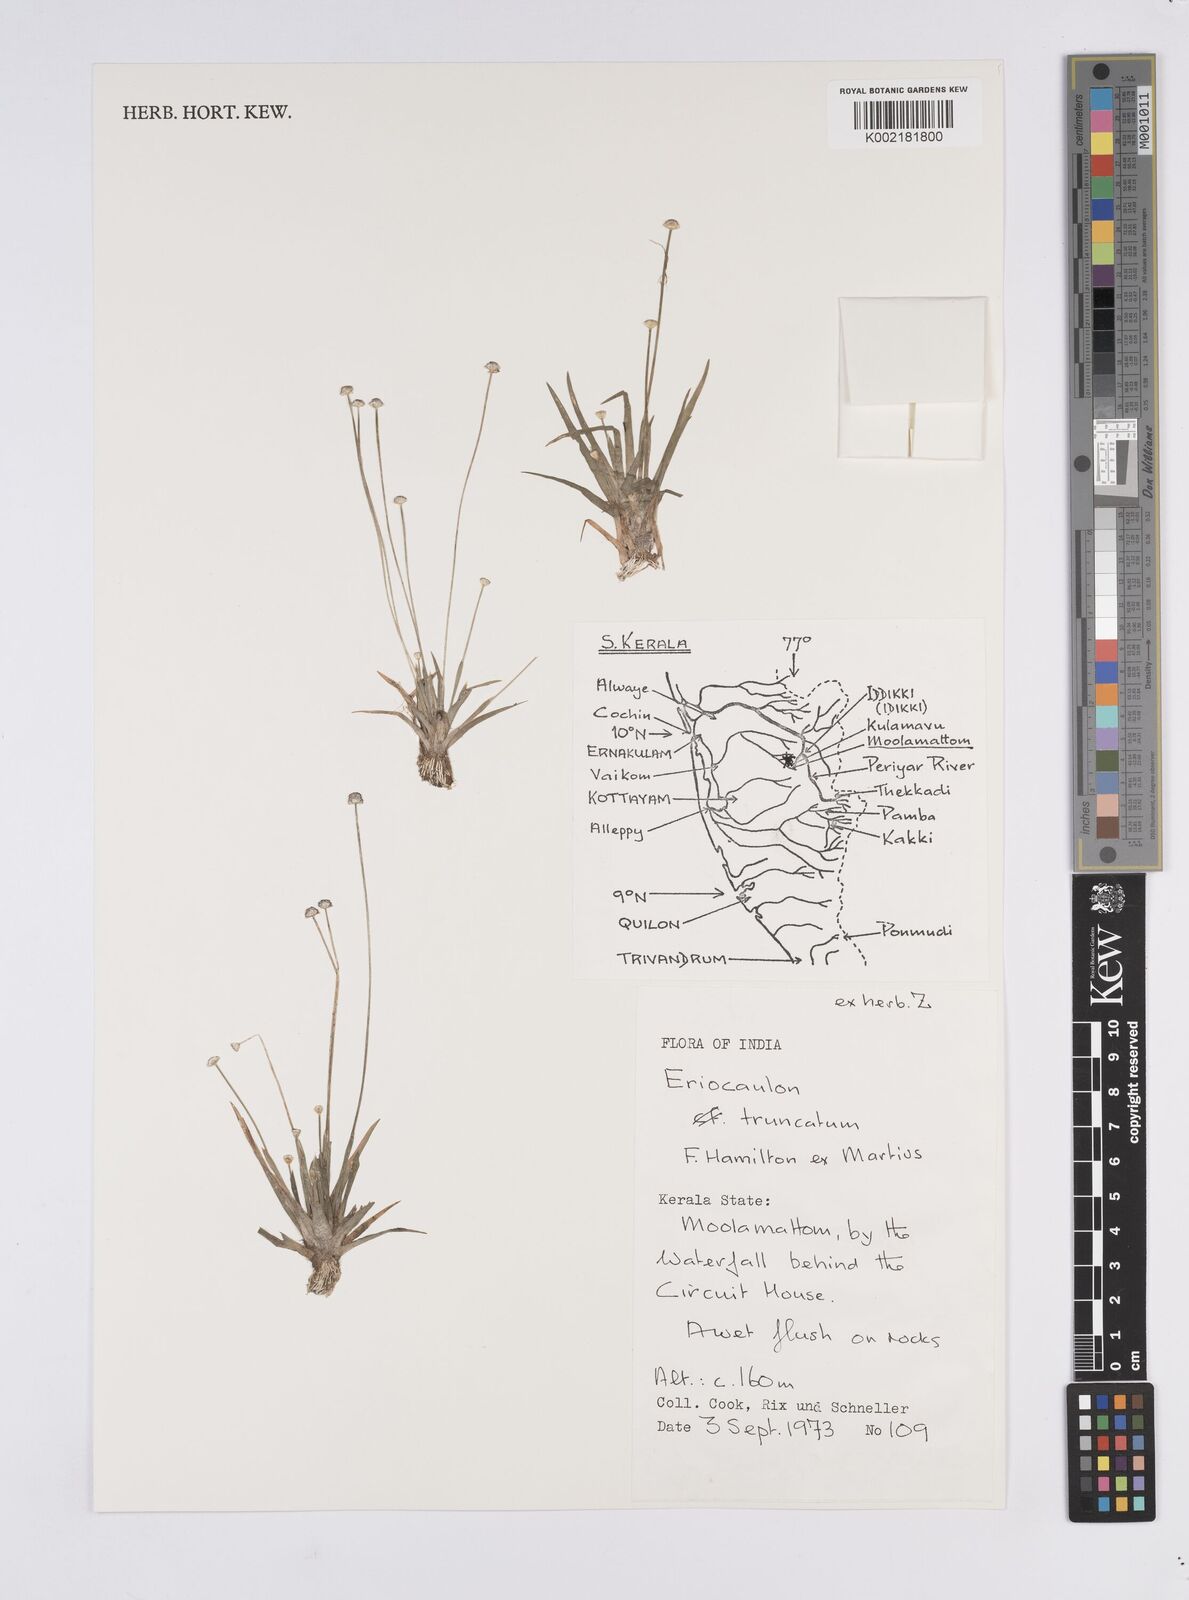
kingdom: Plantae
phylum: Tracheophyta
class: Liliopsida
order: Poales
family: Eriocaulaceae
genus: Eriocaulon
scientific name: Eriocaulon truncatum
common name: Short pipe-wort
